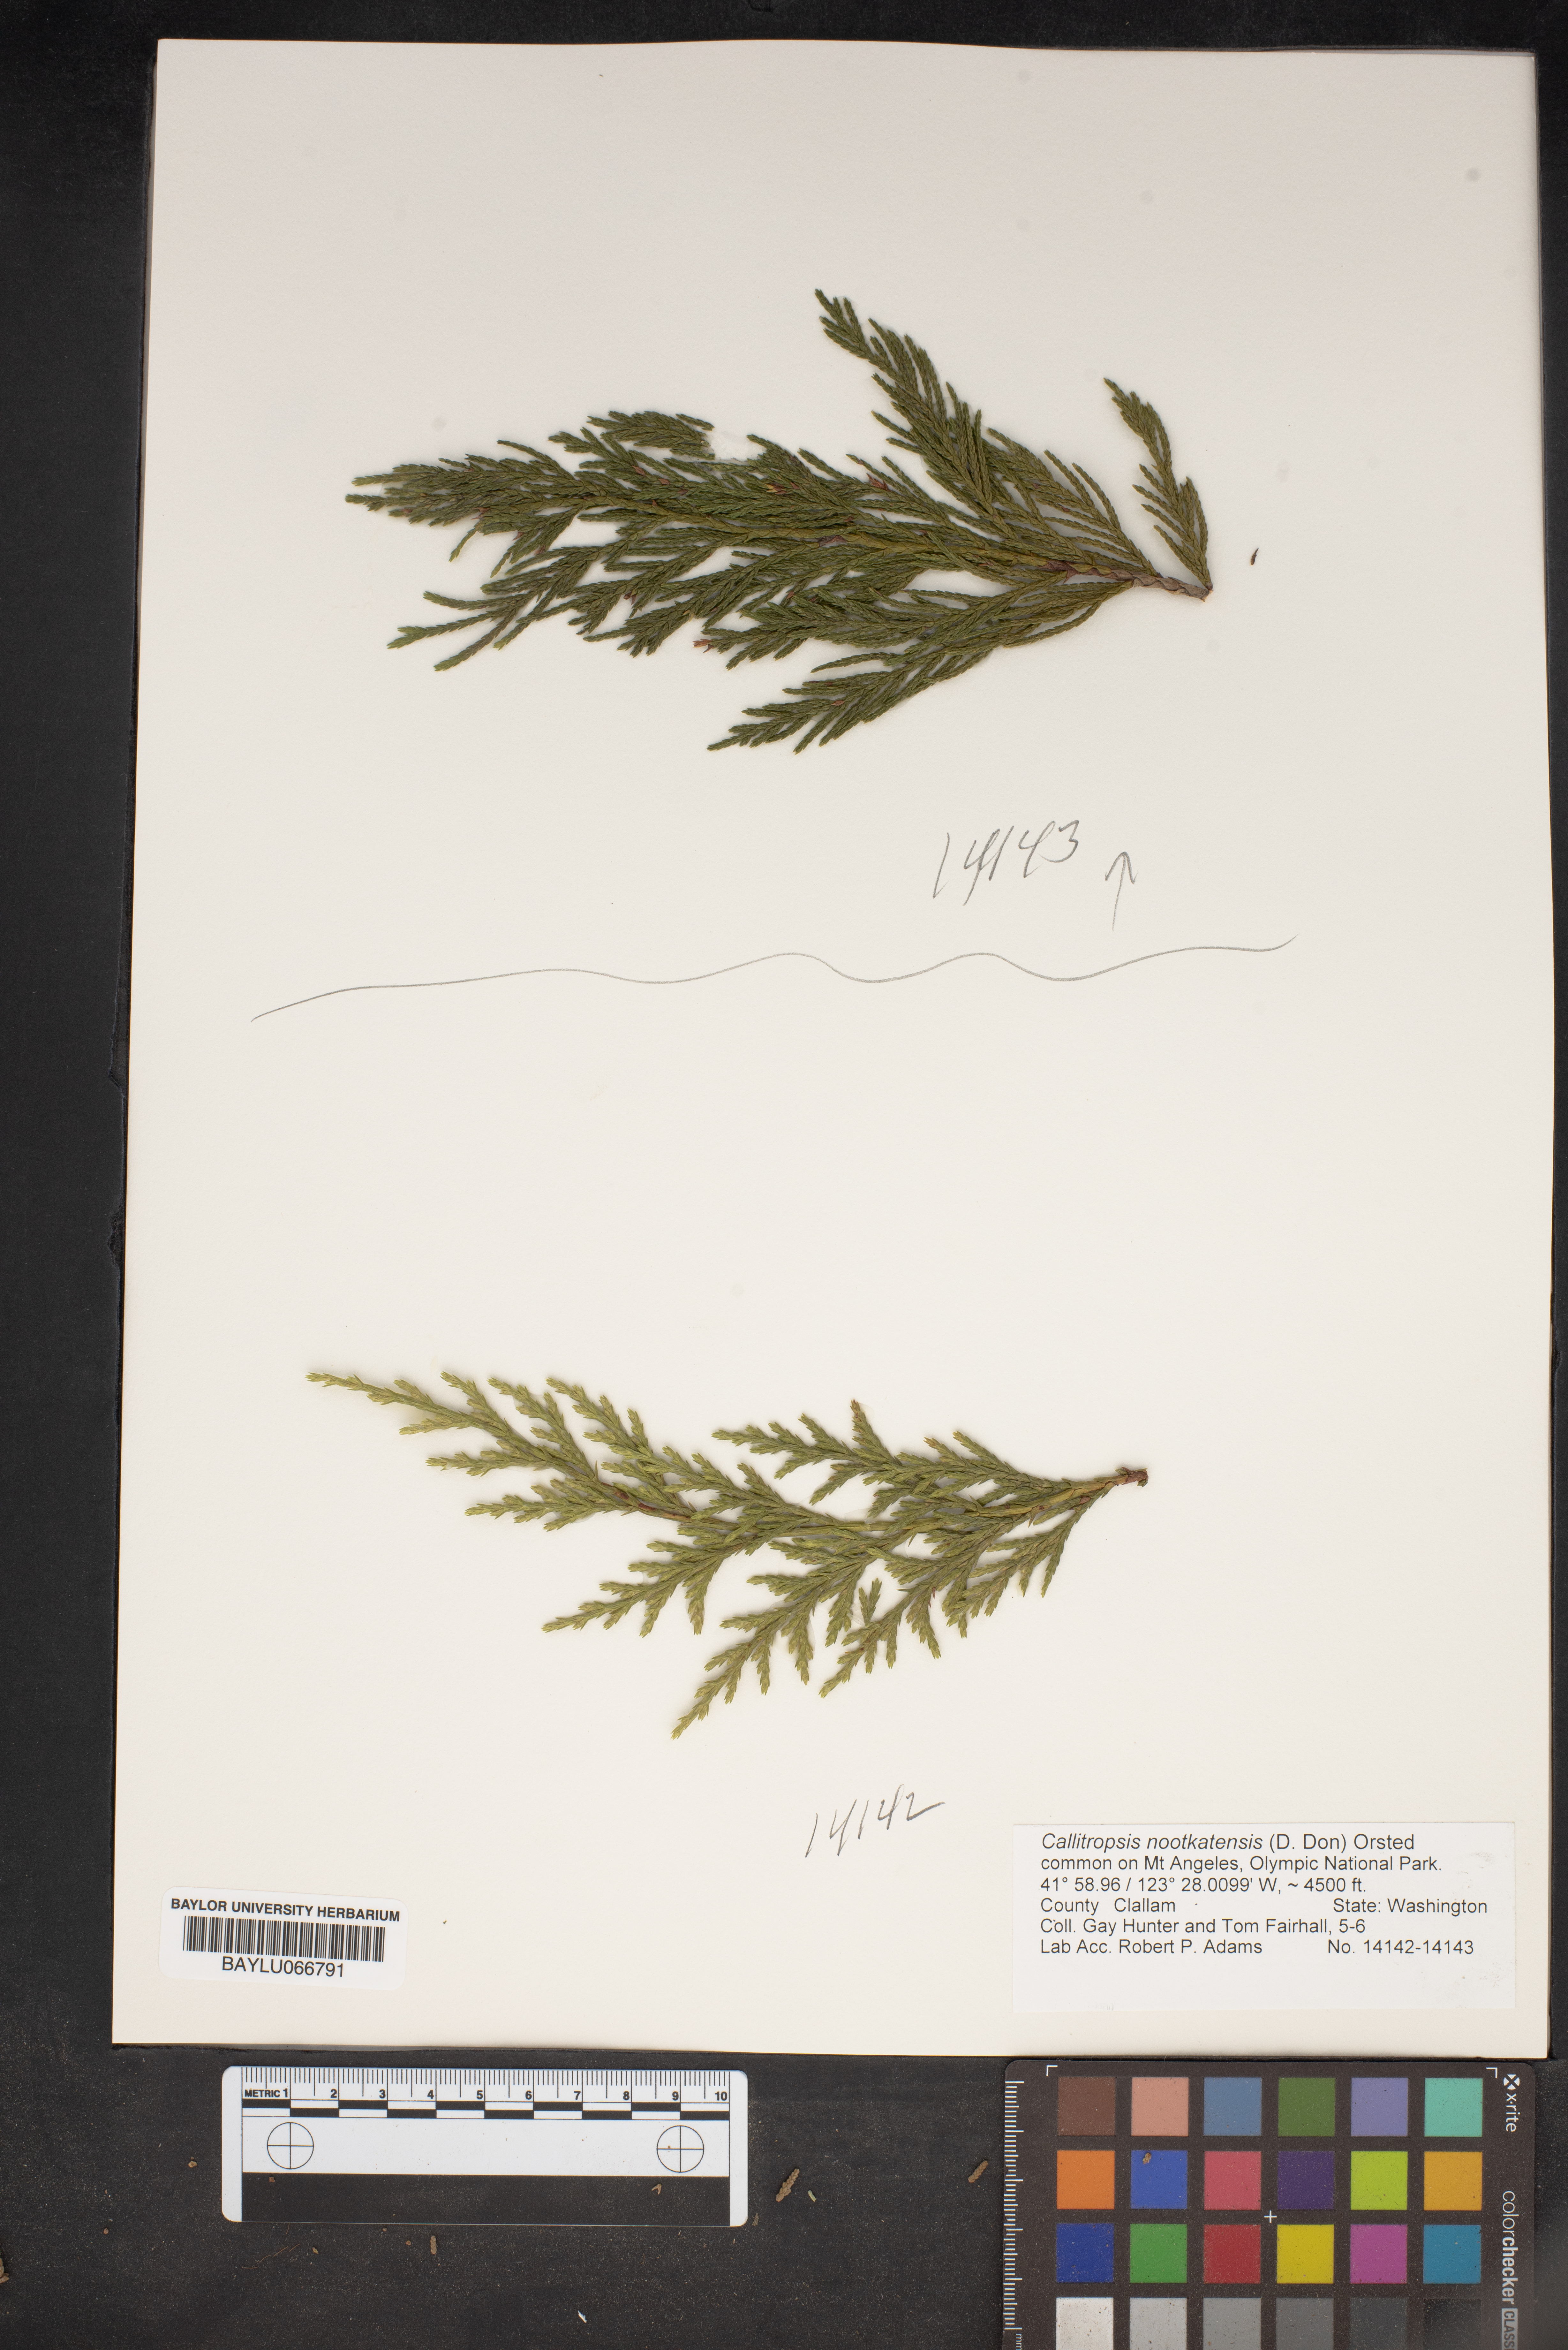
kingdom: Plantae
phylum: Tracheophyta
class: Pinopsida
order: Pinales
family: Cupressaceae
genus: Xanthocyparis
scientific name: Xanthocyparis nootkatensis
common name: Nootka cypress
